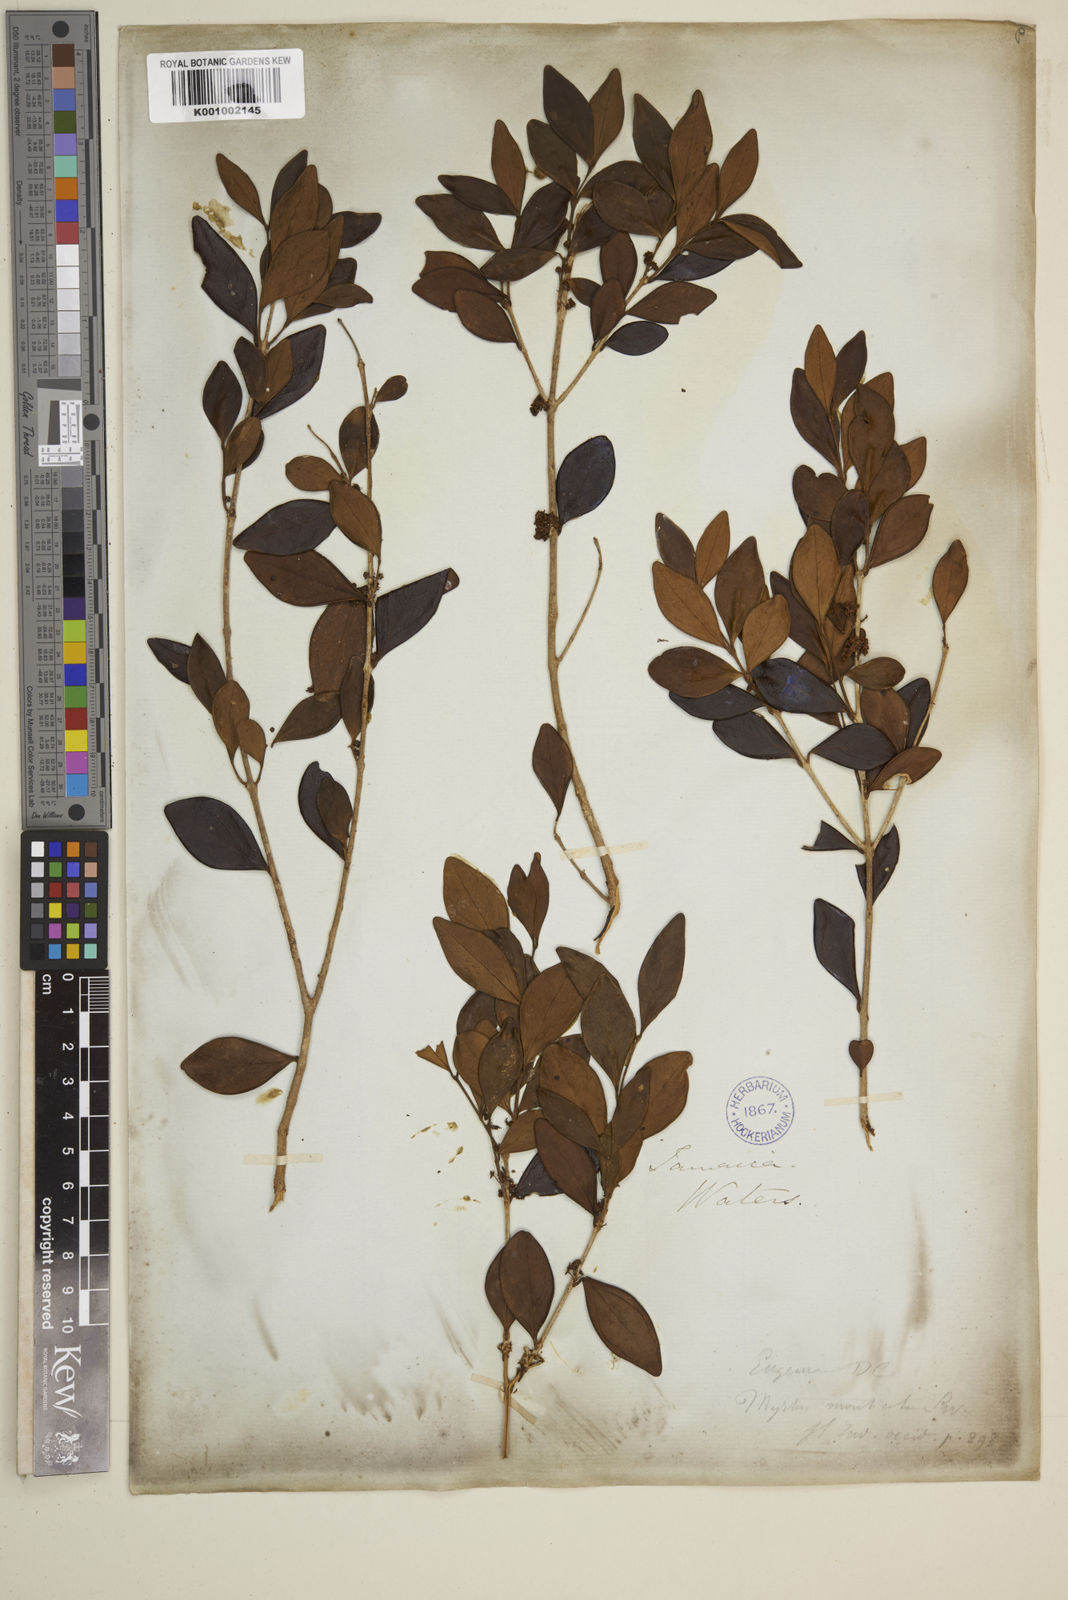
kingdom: Plantae
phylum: Tracheophyta
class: Magnoliopsida
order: Myrtales
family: Myrtaceae
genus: Eugenia
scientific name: Eugenia monticola
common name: Birds berry
